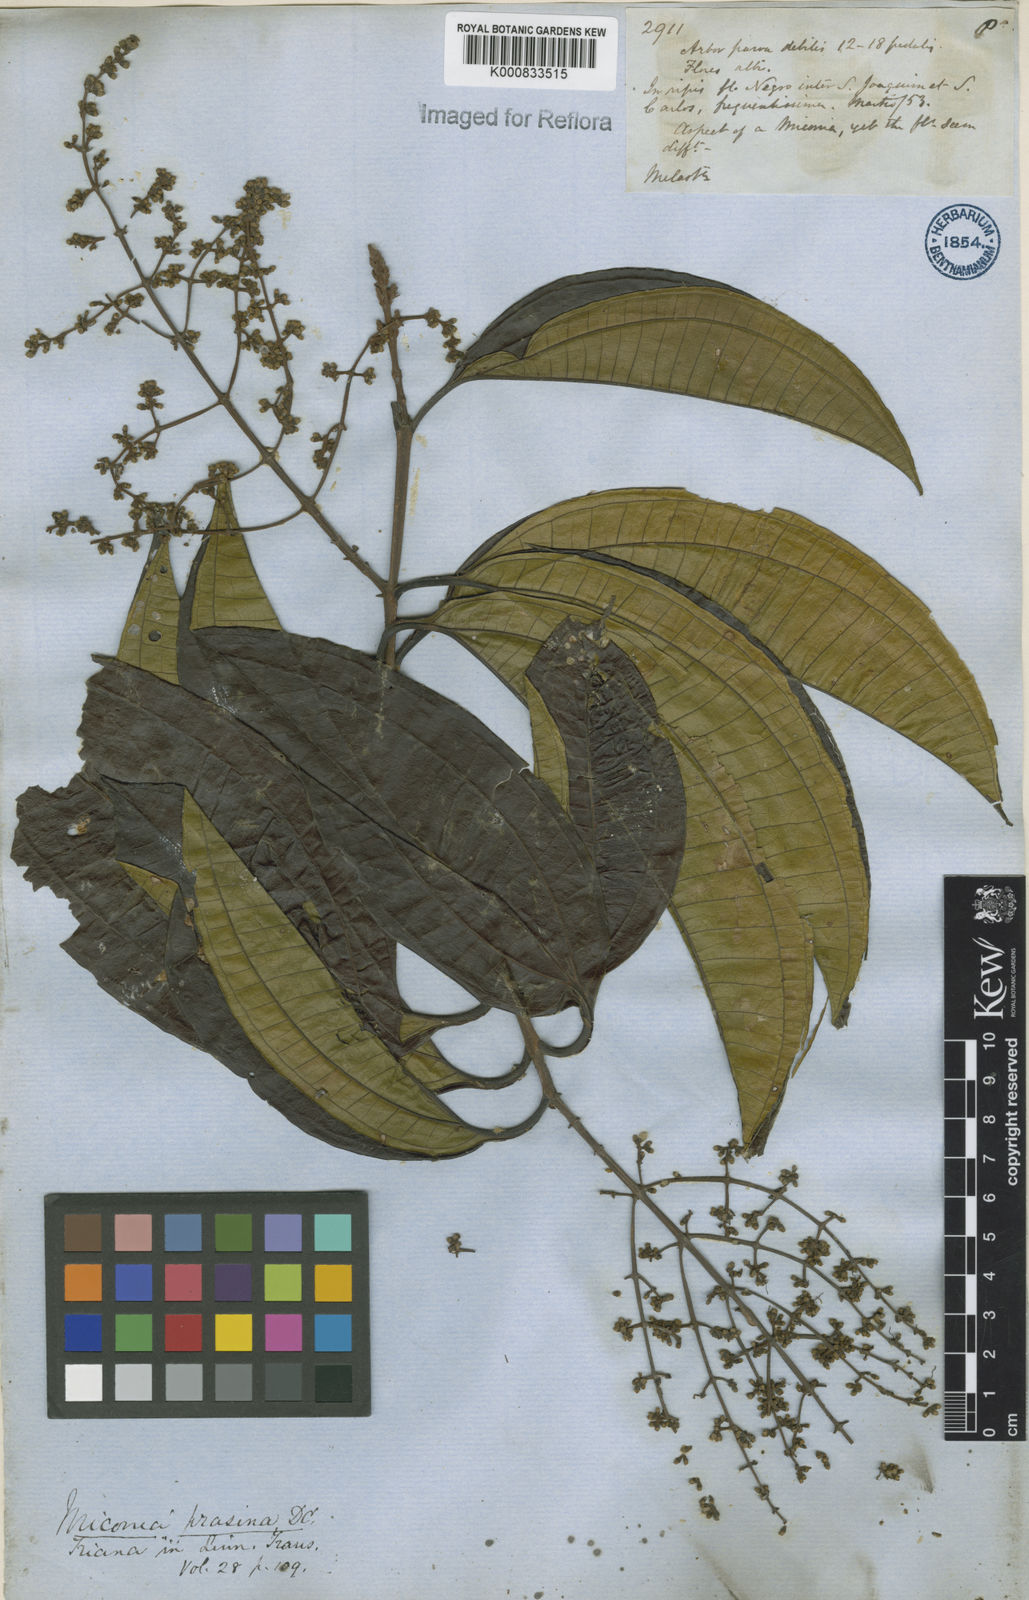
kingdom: Plantae
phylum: Tracheophyta
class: Magnoliopsida
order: Myrtales
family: Melastomataceae
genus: Miconia
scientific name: Miconia prasina
